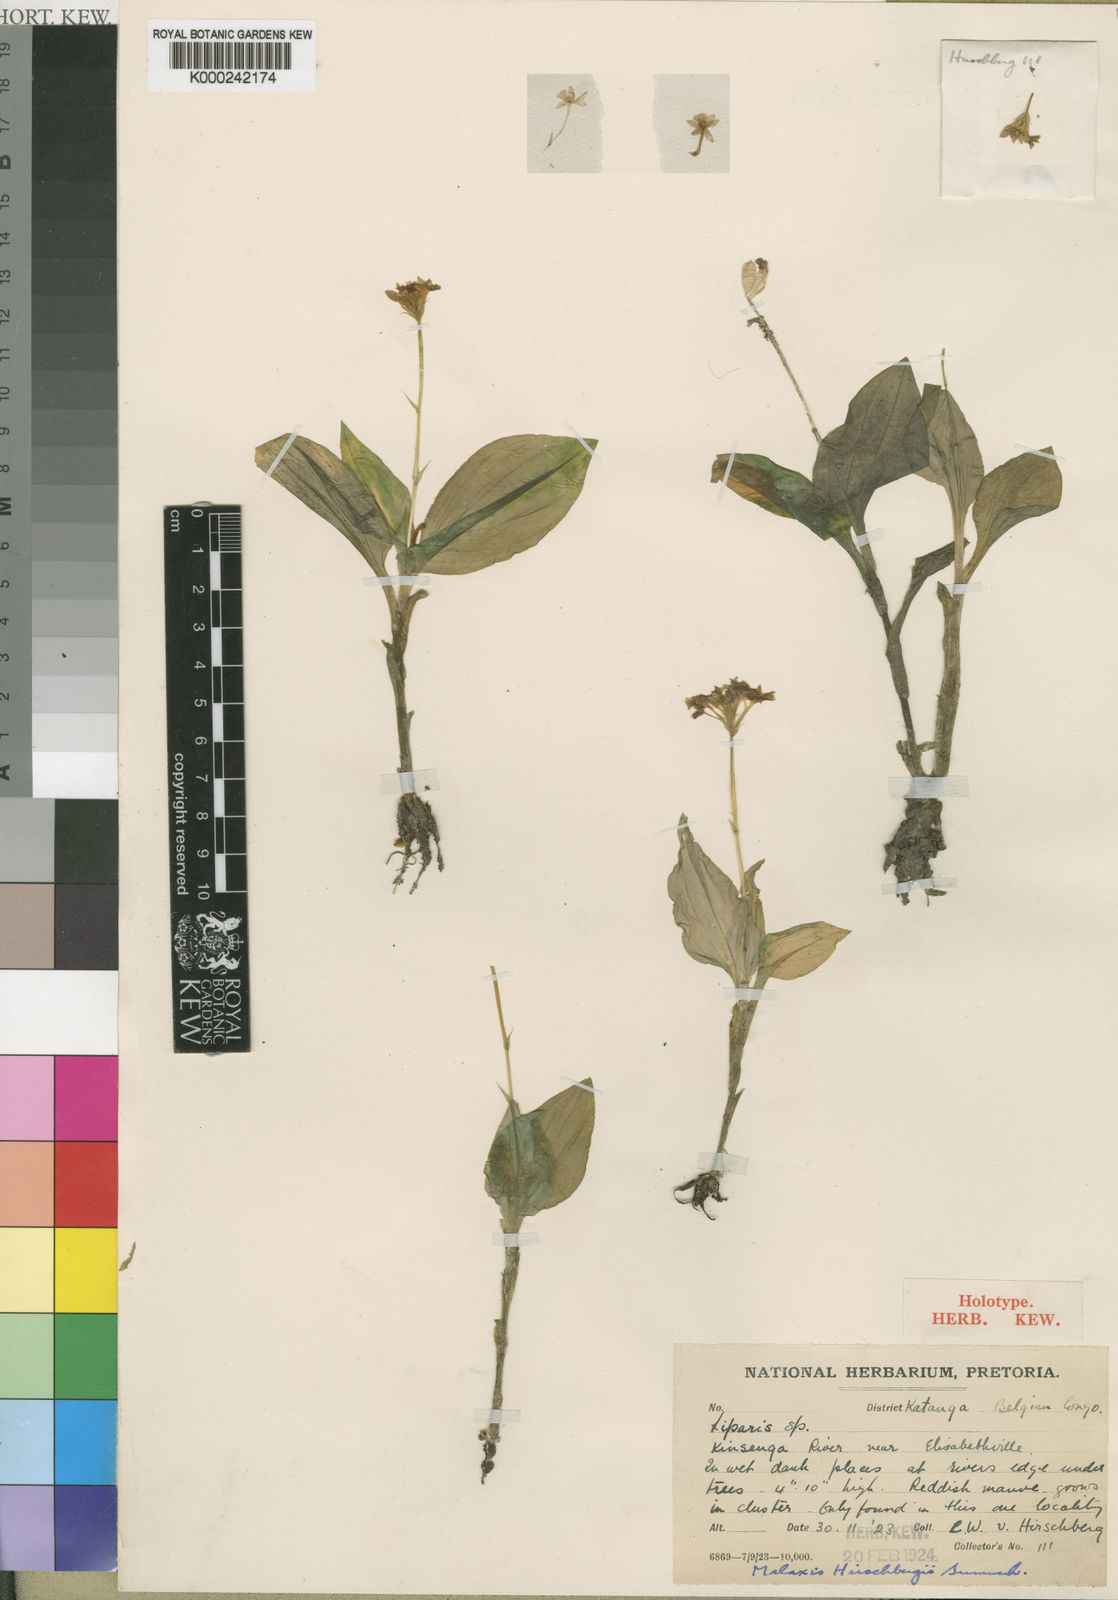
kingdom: Plantae
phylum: Tracheophyta
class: Liliopsida
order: Asparagales
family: Orchidaceae
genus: Malaxis
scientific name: Malaxis maclaudii
